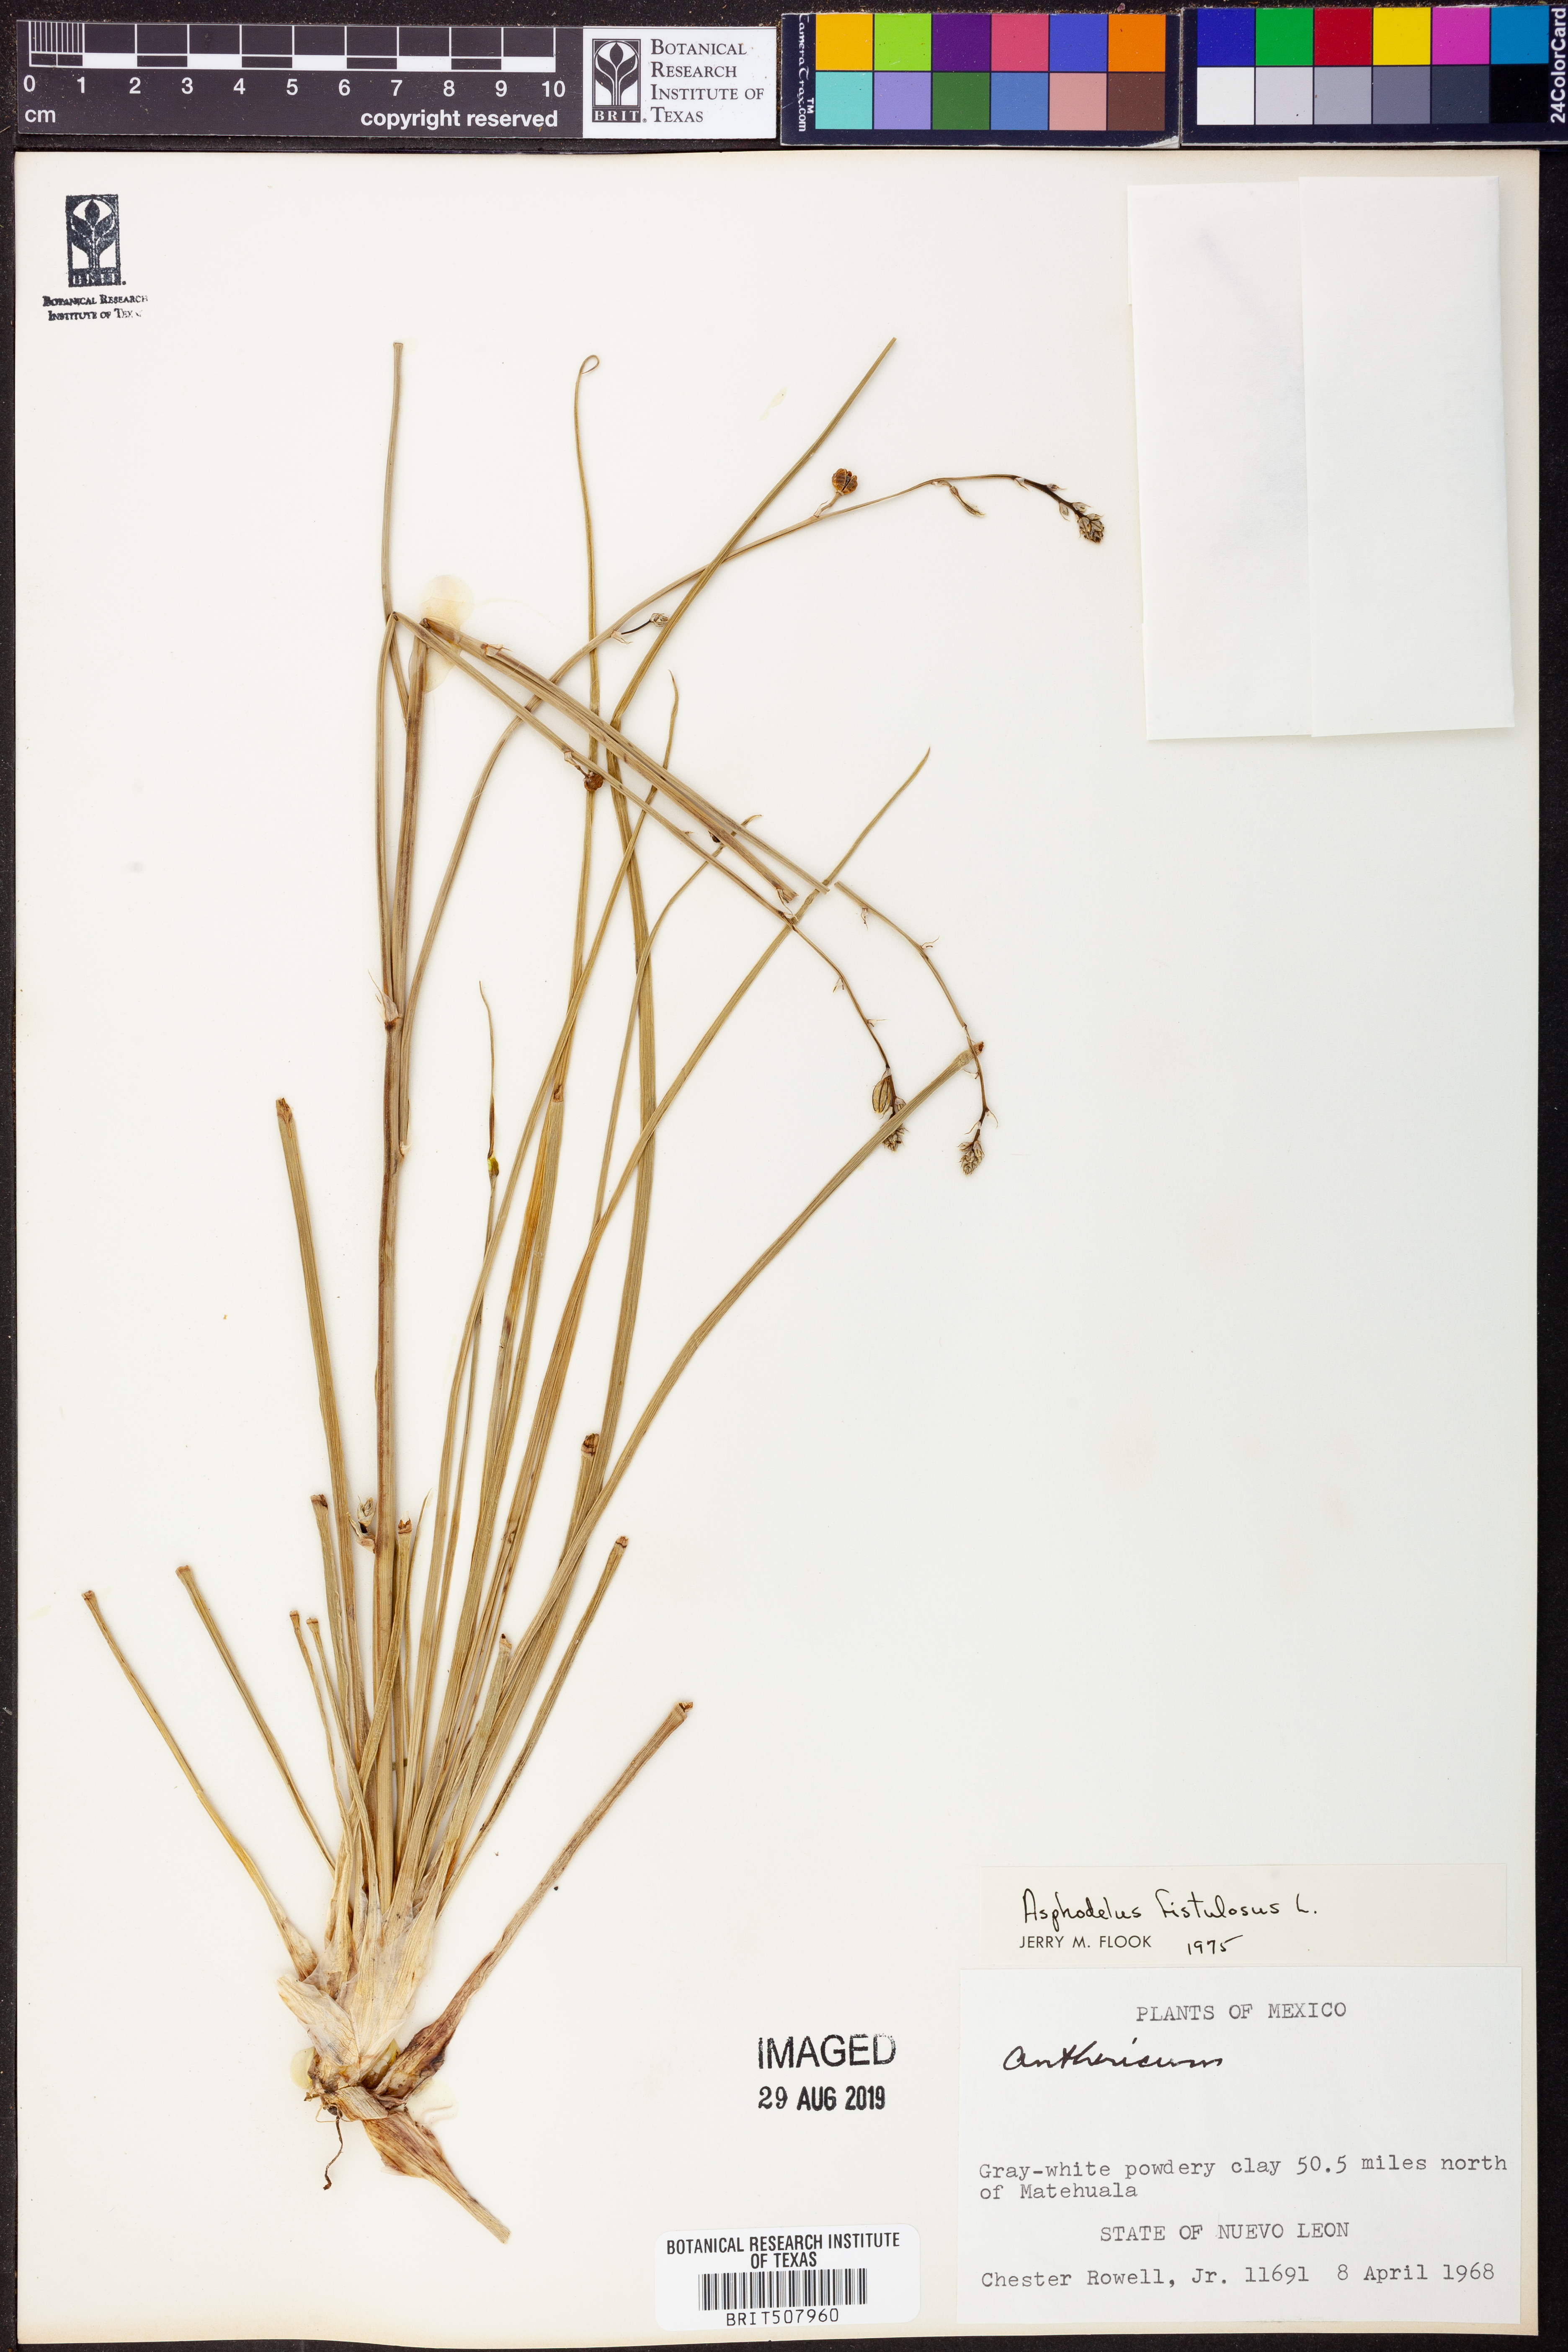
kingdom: Plantae
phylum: Tracheophyta
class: Liliopsida
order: Asparagales
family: Asphodelaceae
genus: Asphodelus
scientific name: Asphodelus fistulosus
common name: Onionweed
